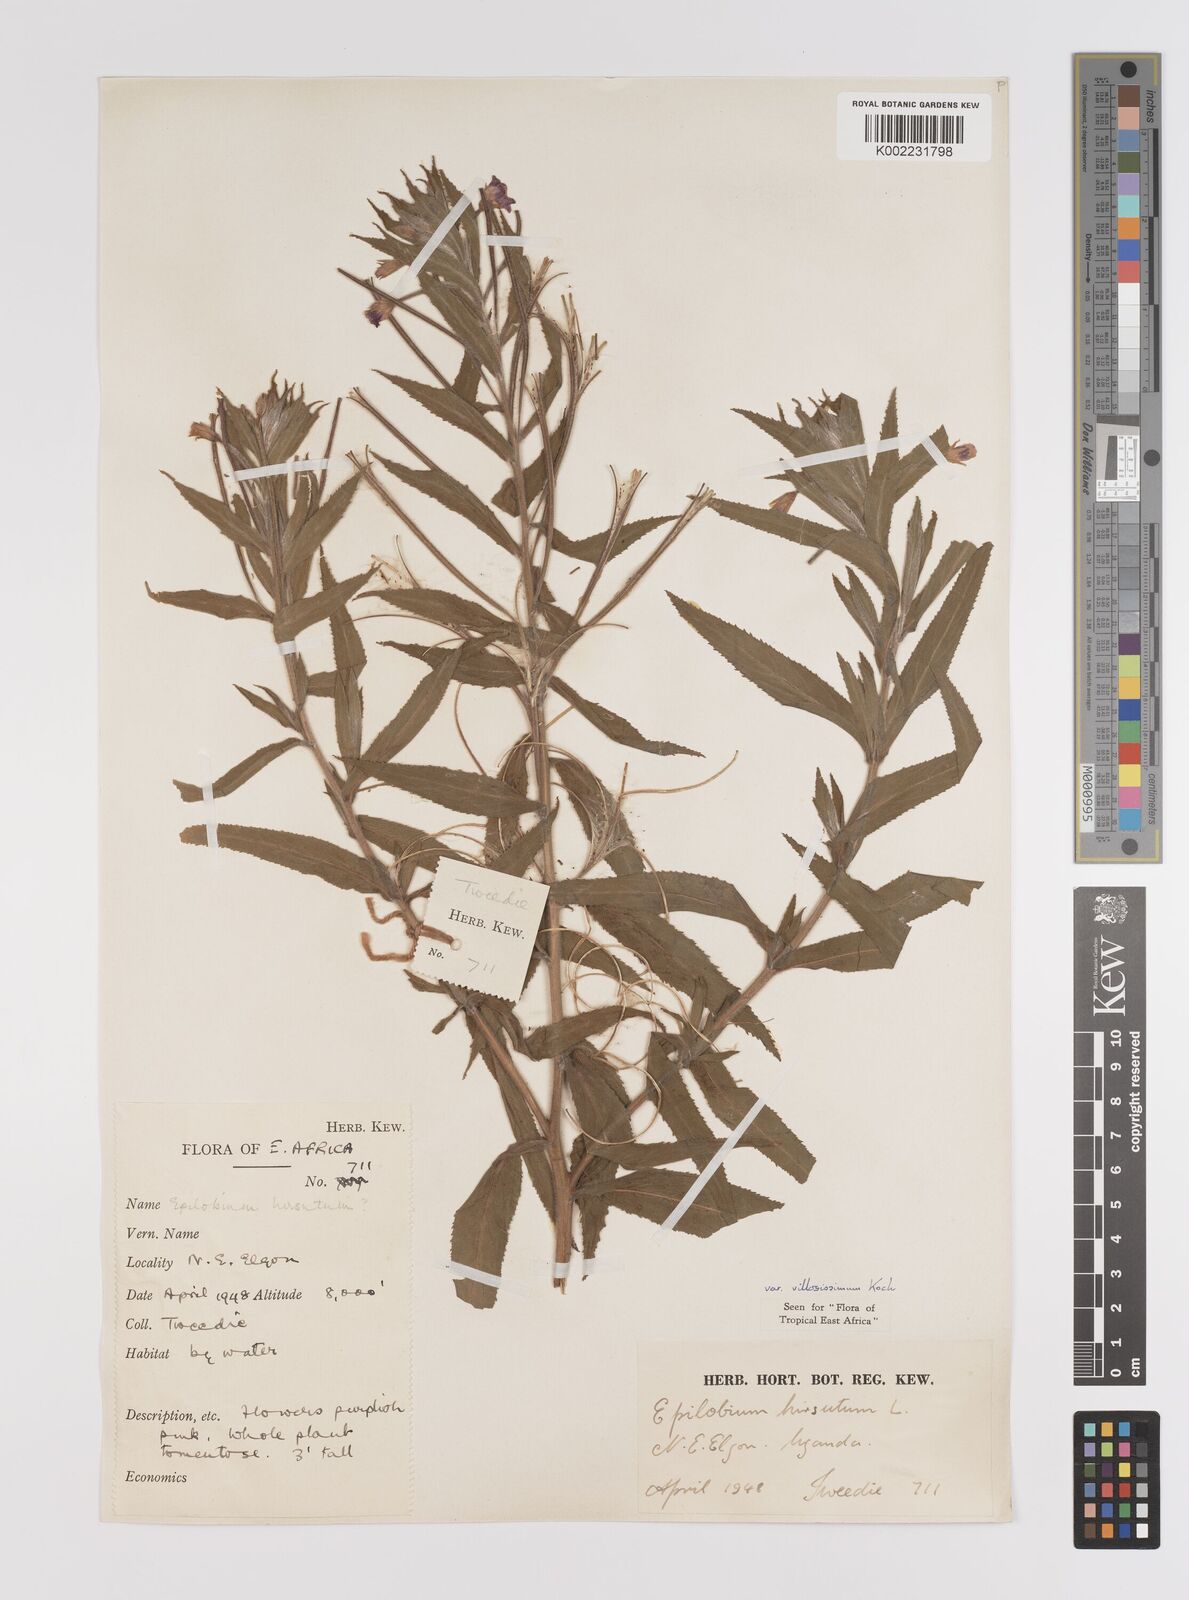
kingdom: Plantae
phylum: Tracheophyta
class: Magnoliopsida
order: Myrtales
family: Onagraceae
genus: Epilobium
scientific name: Epilobium hirsutum
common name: Great willowherb
